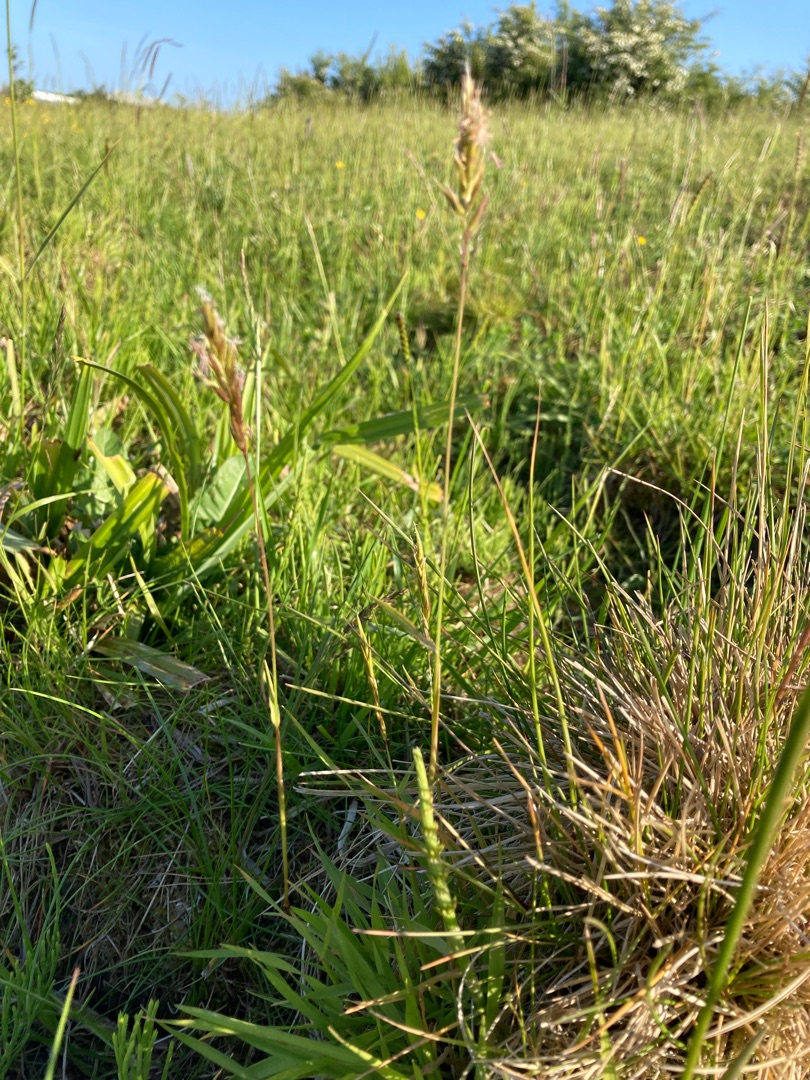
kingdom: Plantae
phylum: Tracheophyta
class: Liliopsida
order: Poales
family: Poaceae
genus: Anthoxanthum
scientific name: Anthoxanthum odoratum
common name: Vellugtende gulaks
